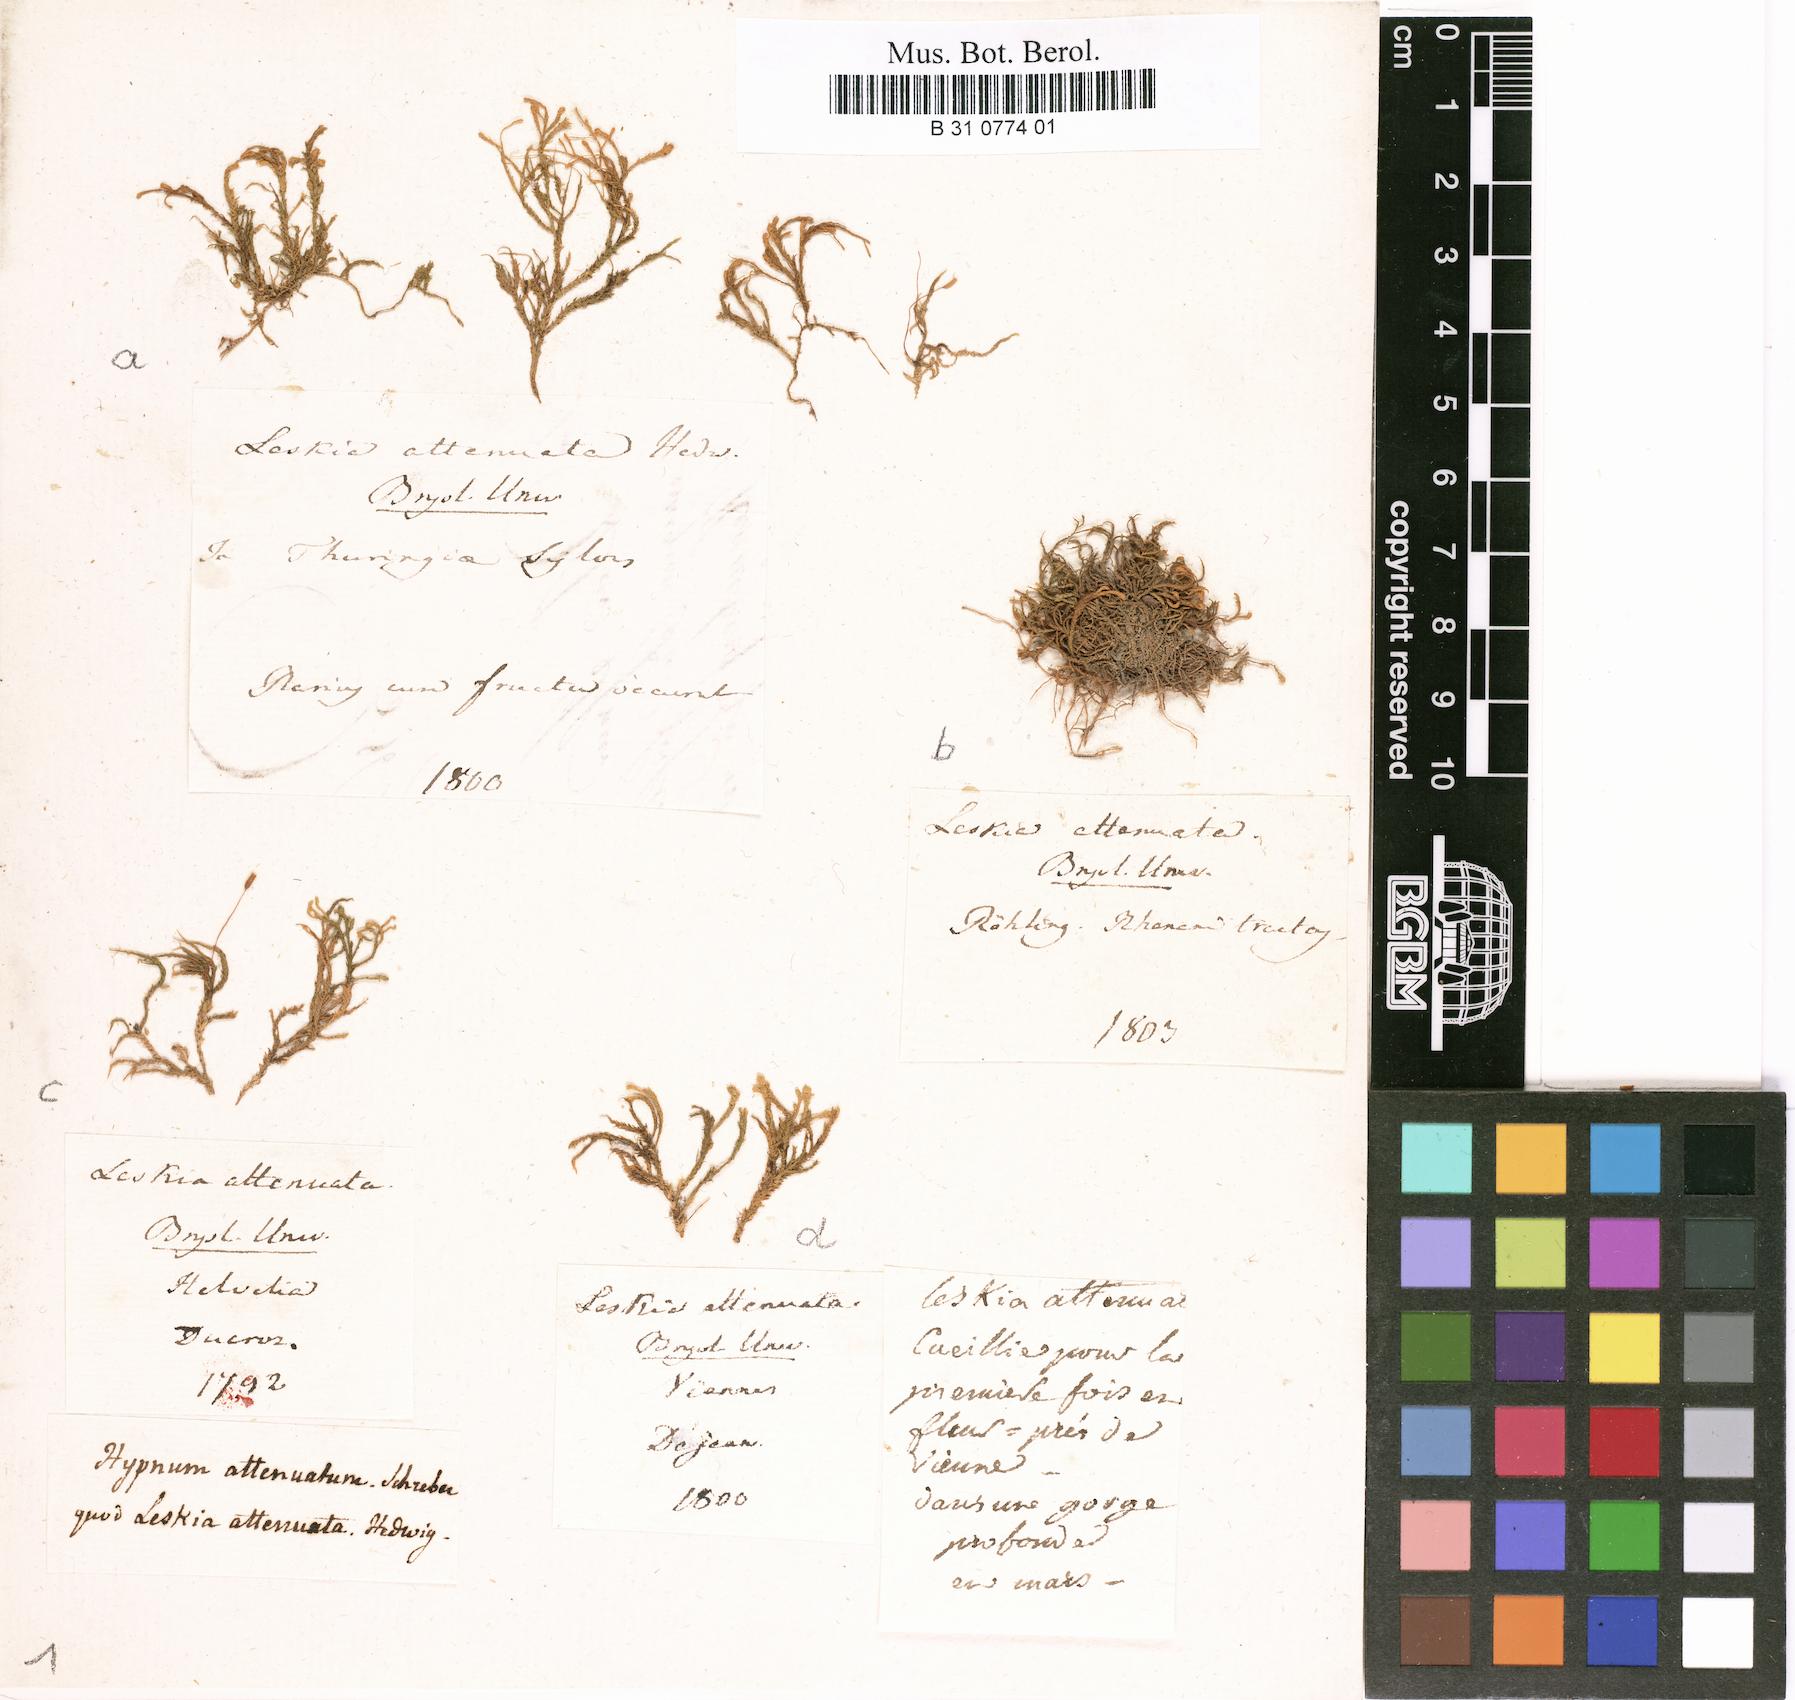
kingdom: Plantae
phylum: Bryophyta
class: Bryopsida
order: Hypnales
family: Neckeraceae
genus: Pseudanomodon
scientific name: Pseudanomodon attenuatus
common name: Tree-skirt moss
